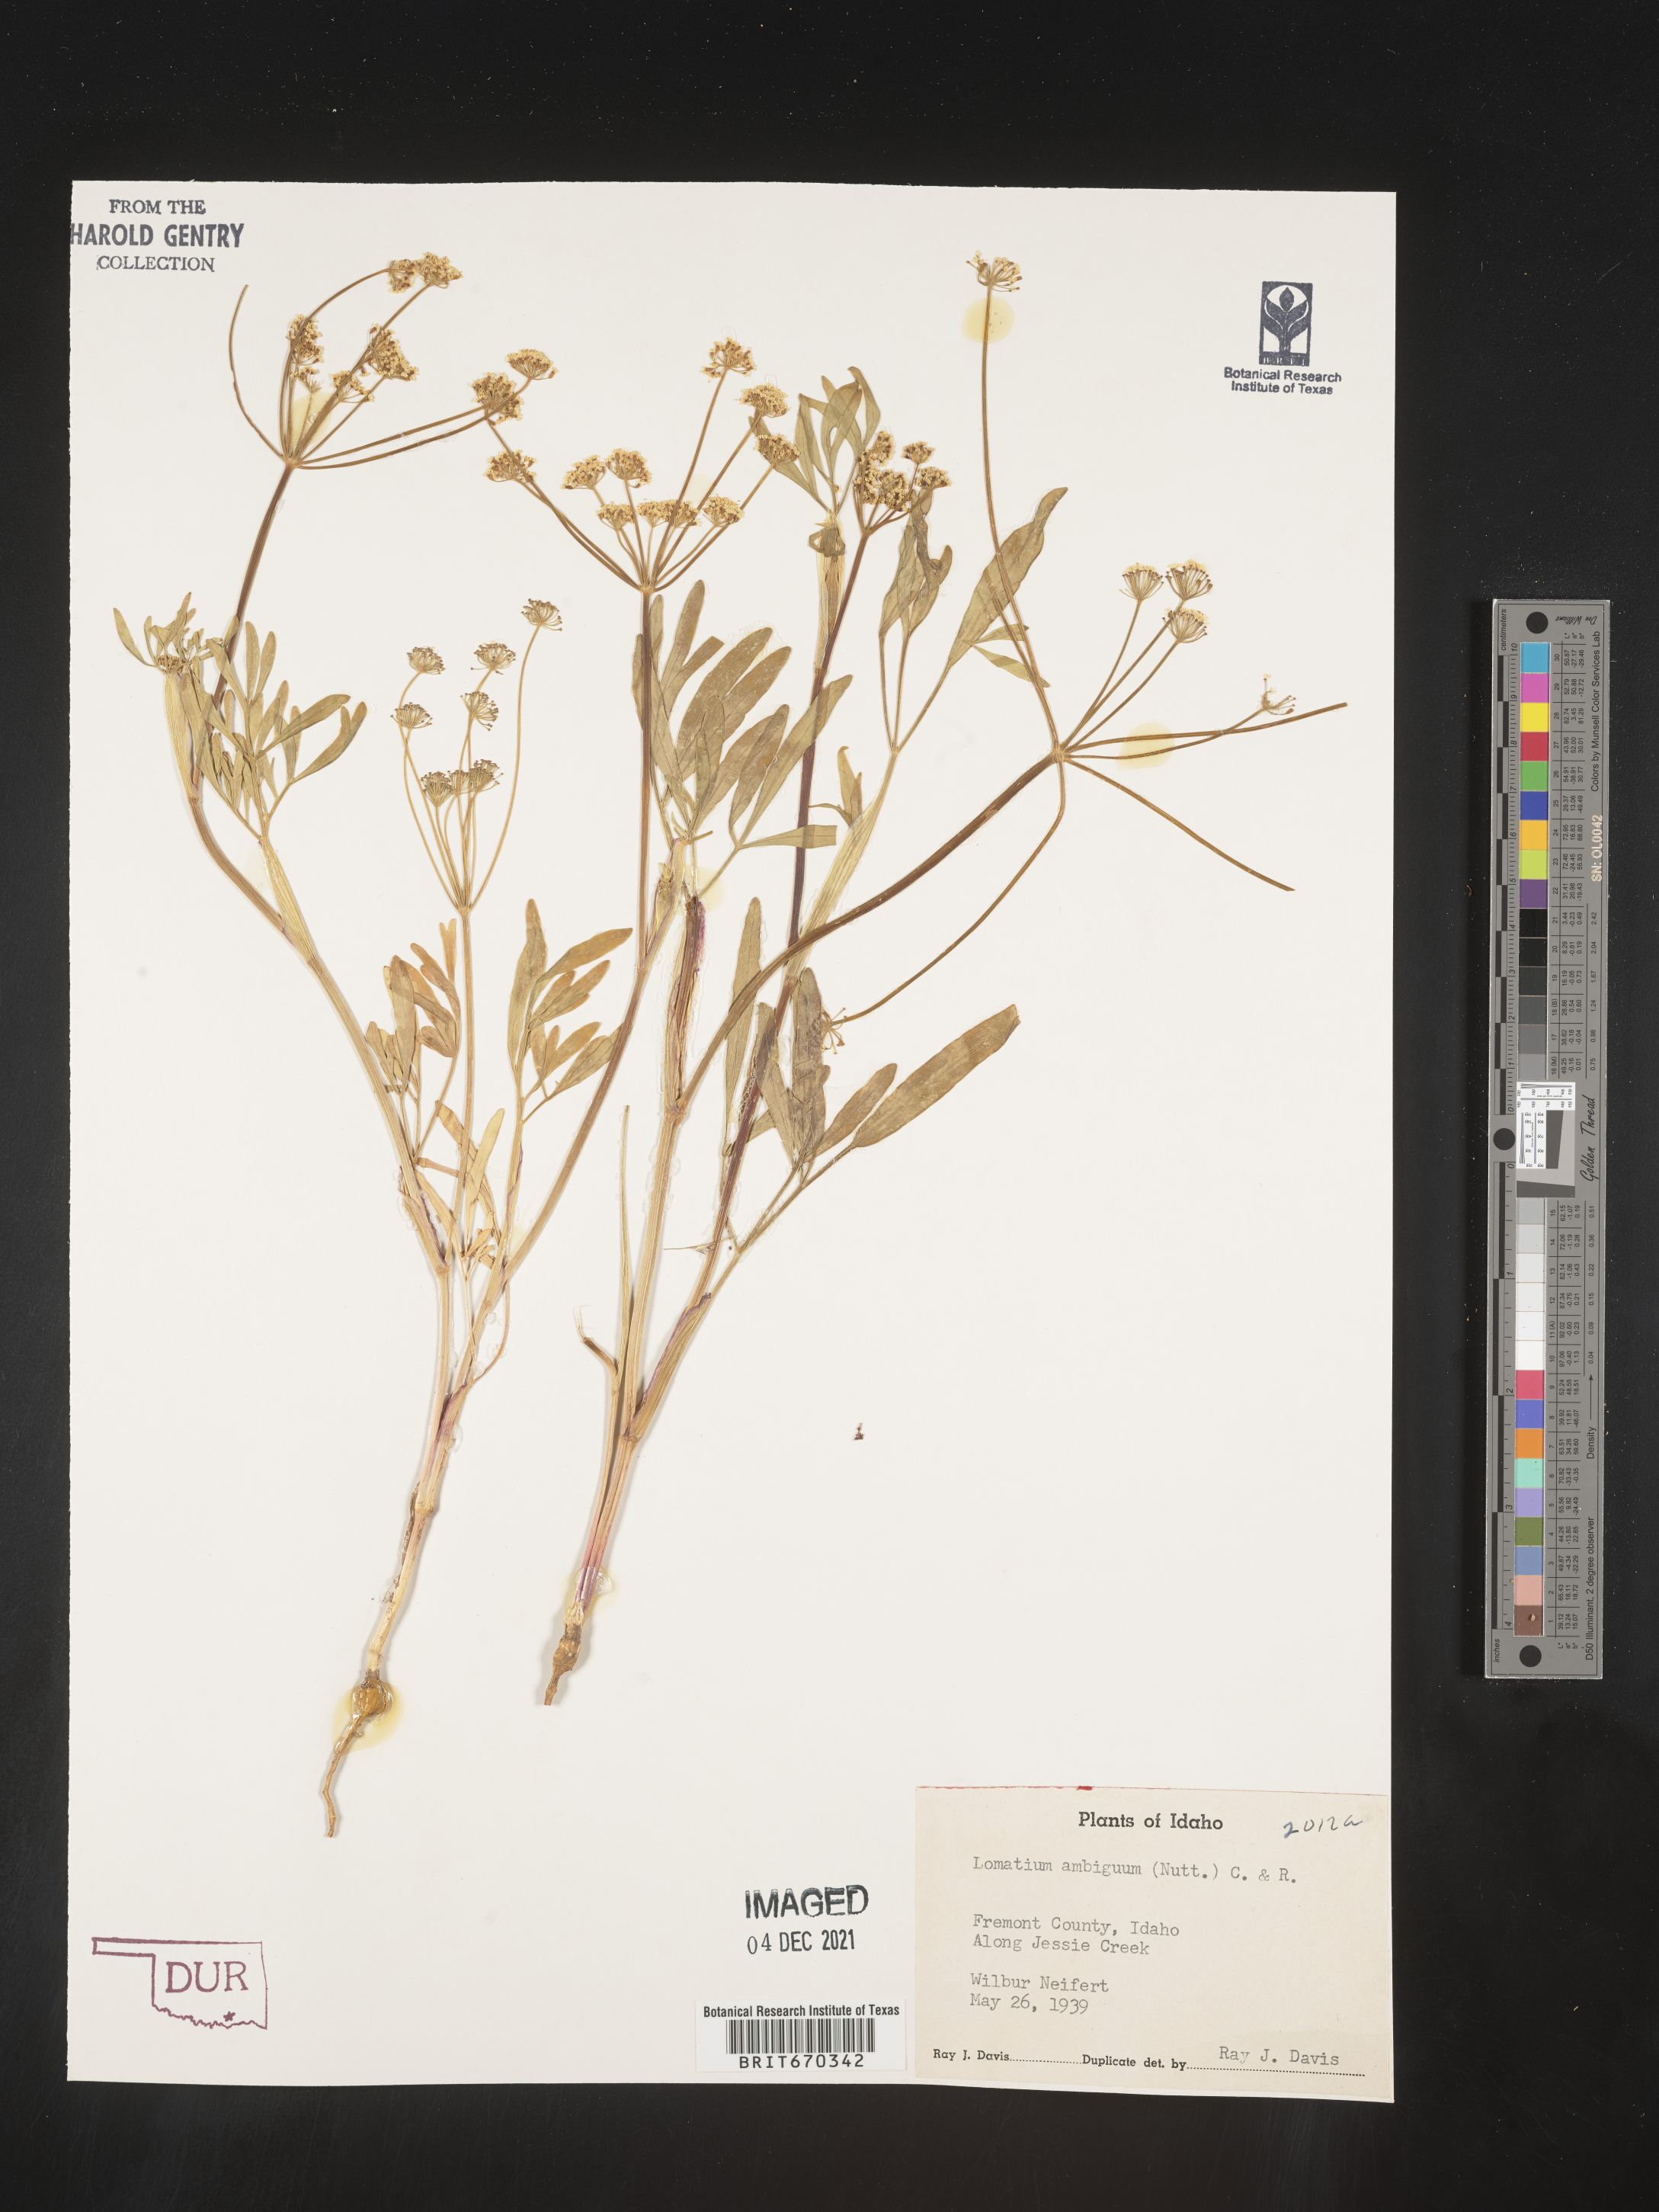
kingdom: Plantae
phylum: Tracheophyta
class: Magnoliopsida
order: Apiales
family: Apiaceae
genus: Lomatium
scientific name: Lomatium ambiguum
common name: Lacy lomatium
